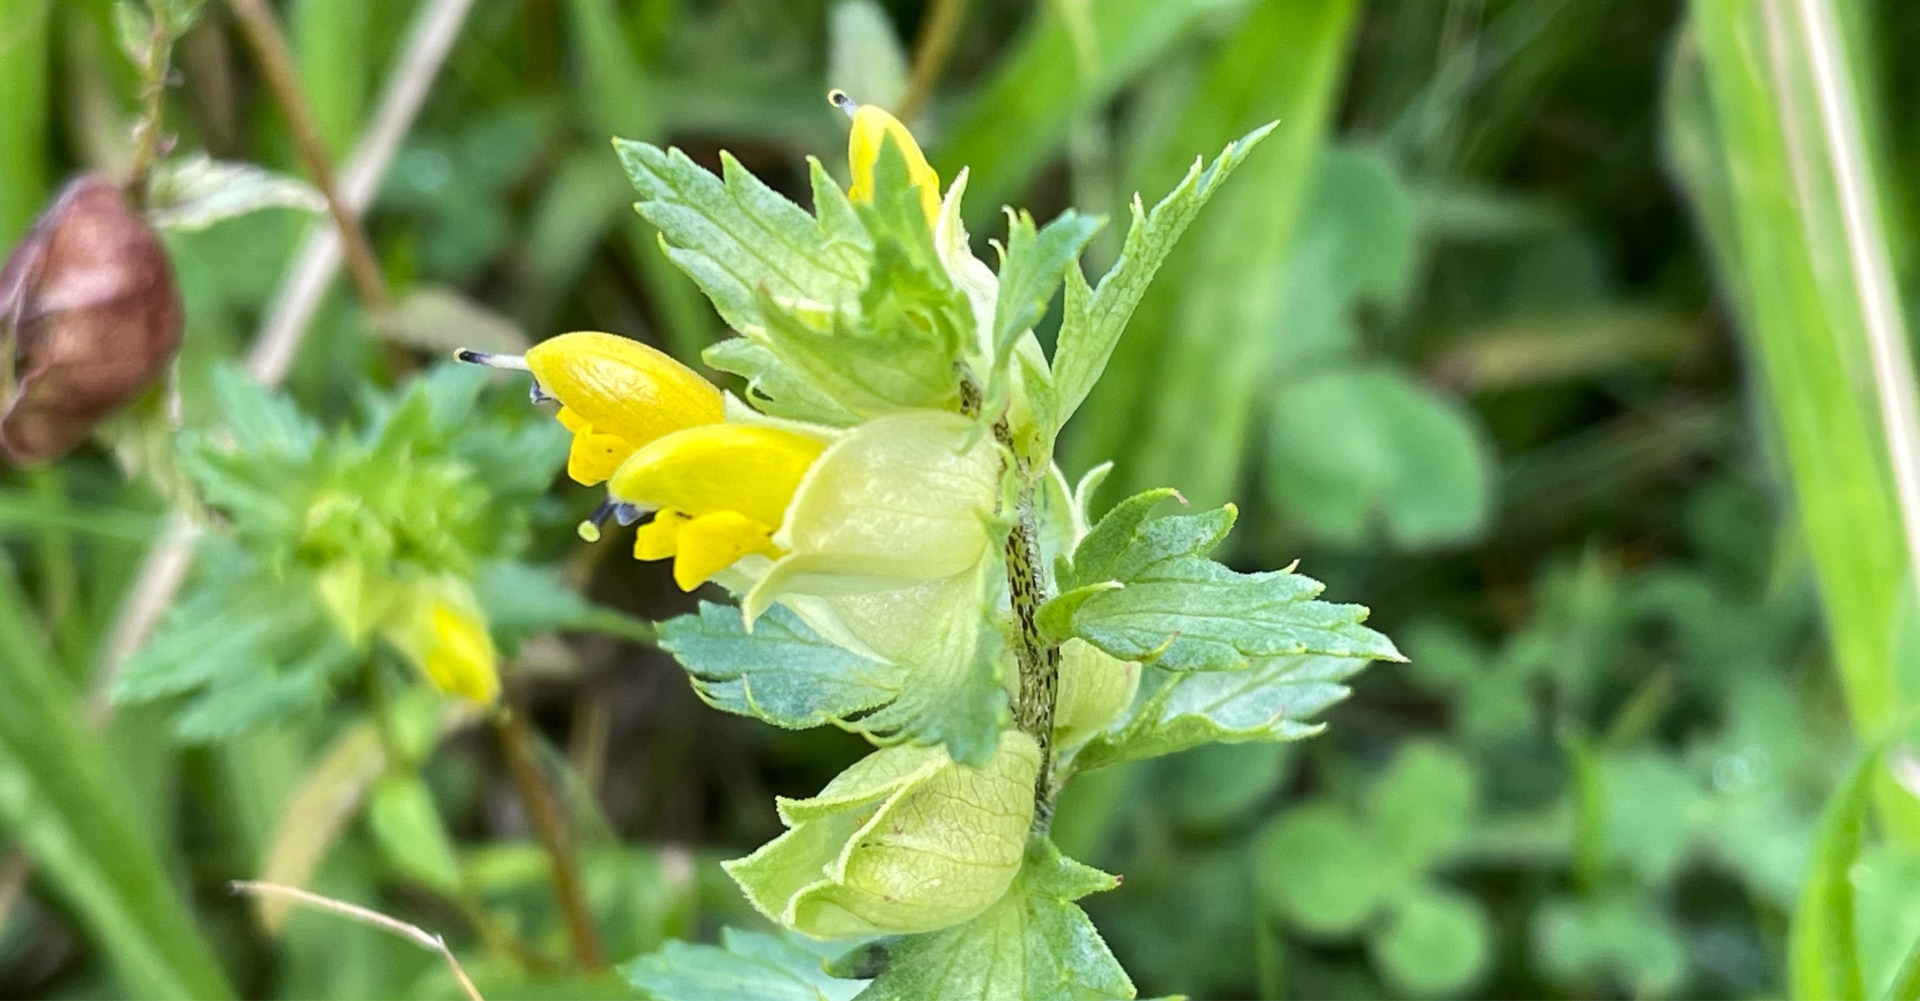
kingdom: Plantae
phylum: Tracheophyta
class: Magnoliopsida
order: Lamiales
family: Orobanchaceae
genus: Rhinanthus
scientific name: Rhinanthus
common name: Stor skjaller
